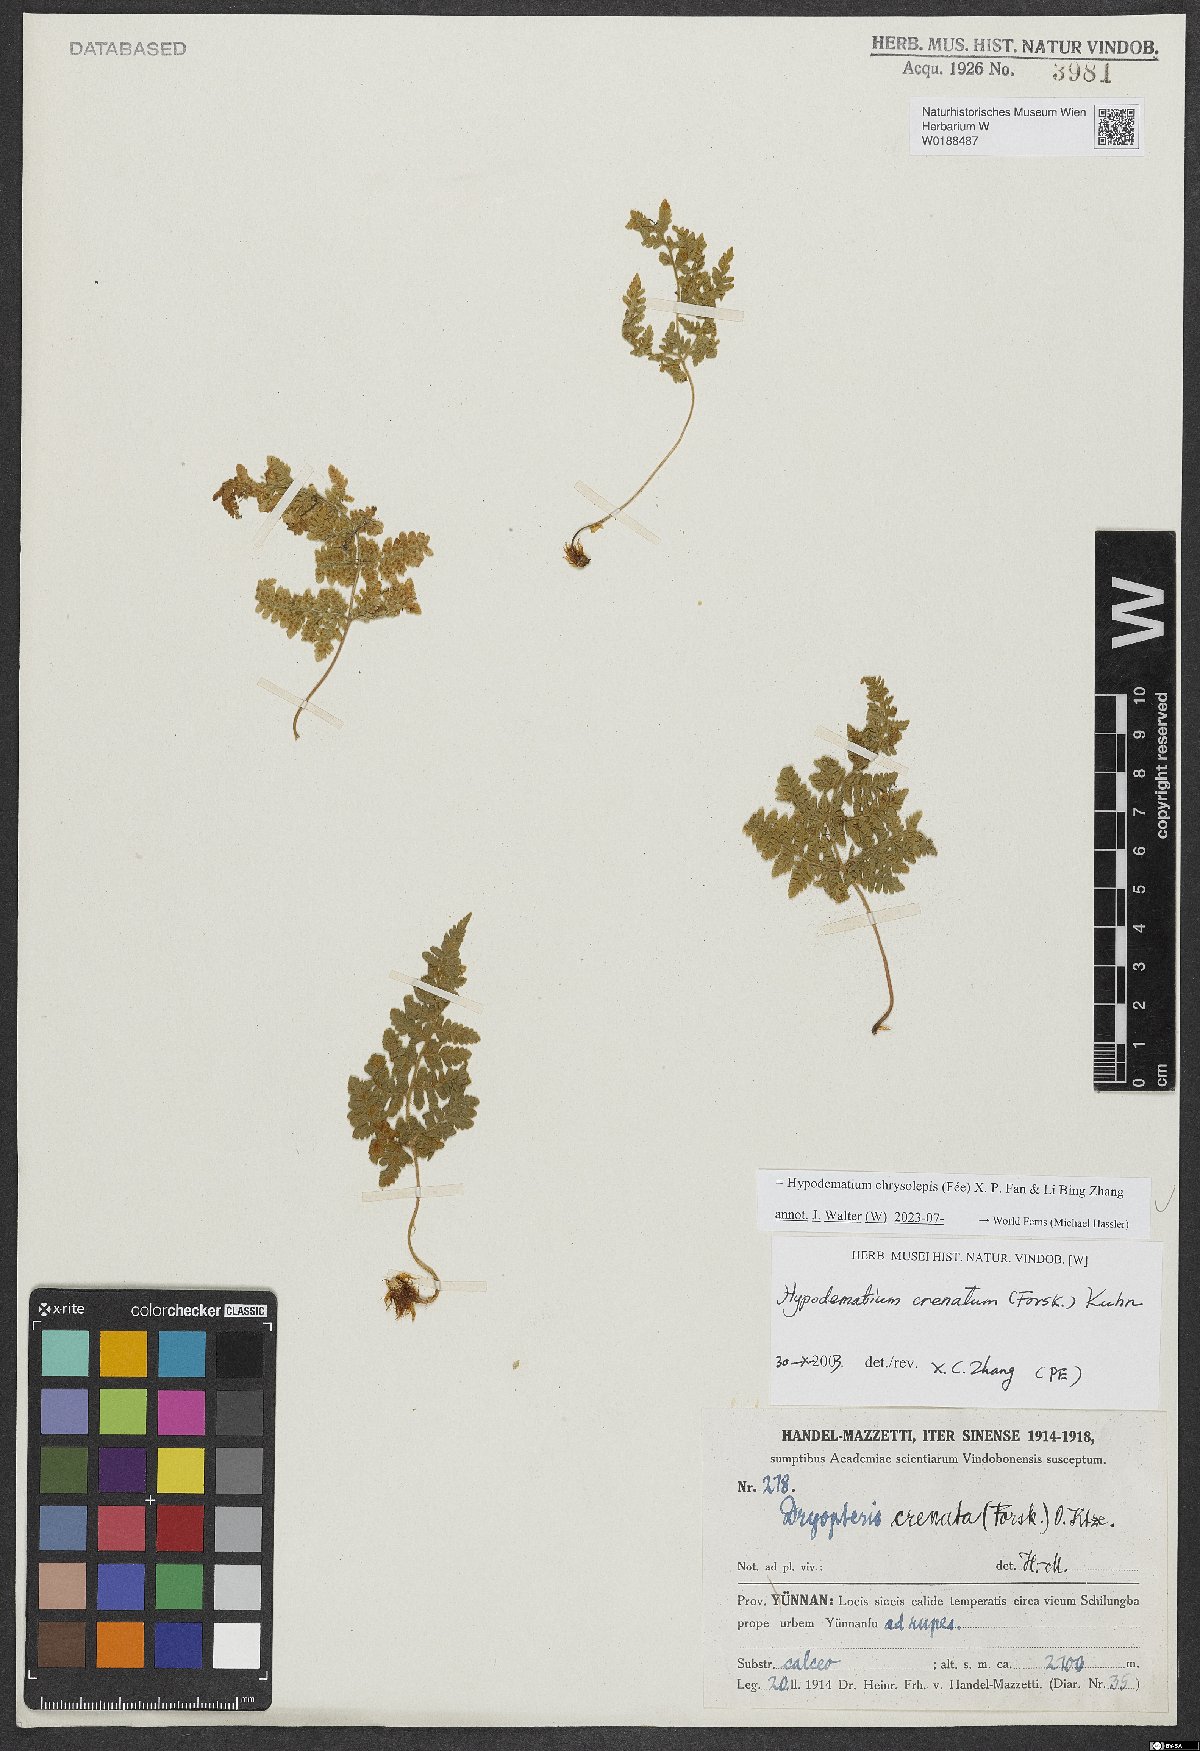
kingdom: Plantae
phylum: Tracheophyta
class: Polypodiopsida
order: Polypodiales
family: Hypodematiaceae
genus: Hypodematium
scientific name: Hypodematium chrysolepis
